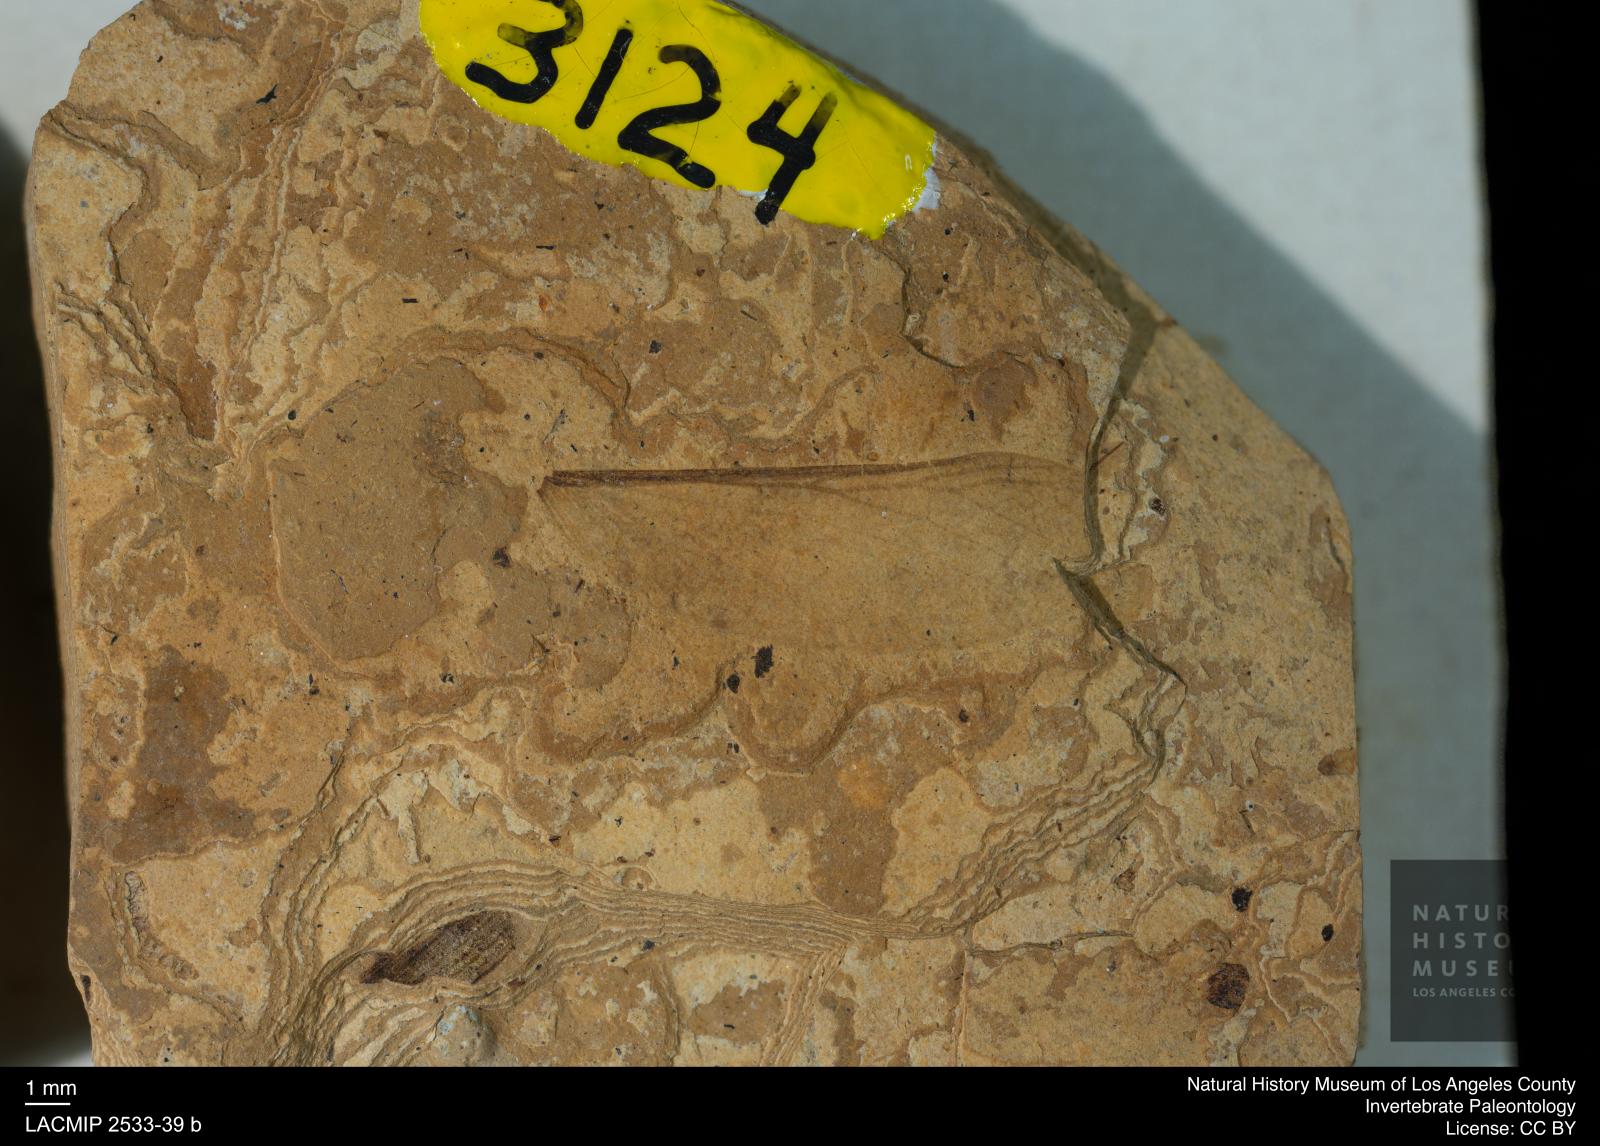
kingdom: Animalia
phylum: Arthropoda
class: Insecta
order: Blattodea
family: Hodotermitidae
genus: Ulmeriella
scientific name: Ulmeriella bauckhorni
